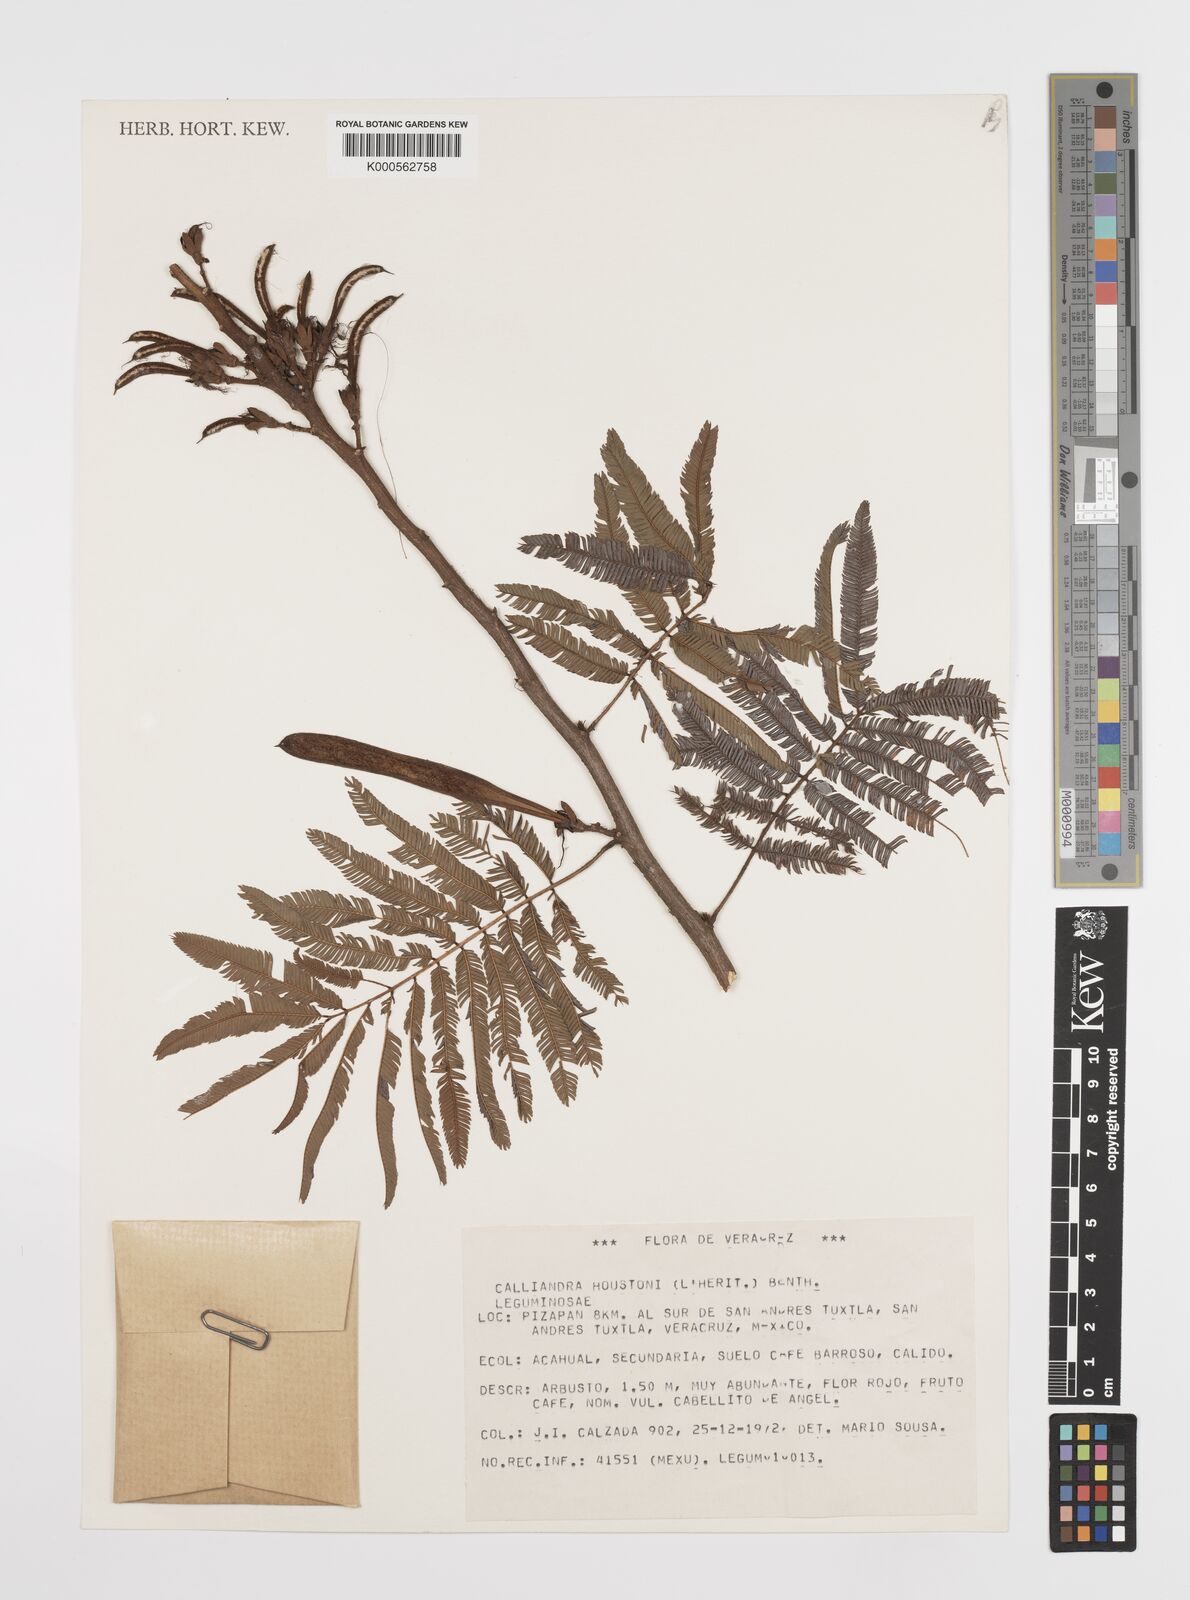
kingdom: Plantae
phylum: Tracheophyta
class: Magnoliopsida
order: Fabales
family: Fabaceae
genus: Calliandra
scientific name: Calliandra houstoniana
